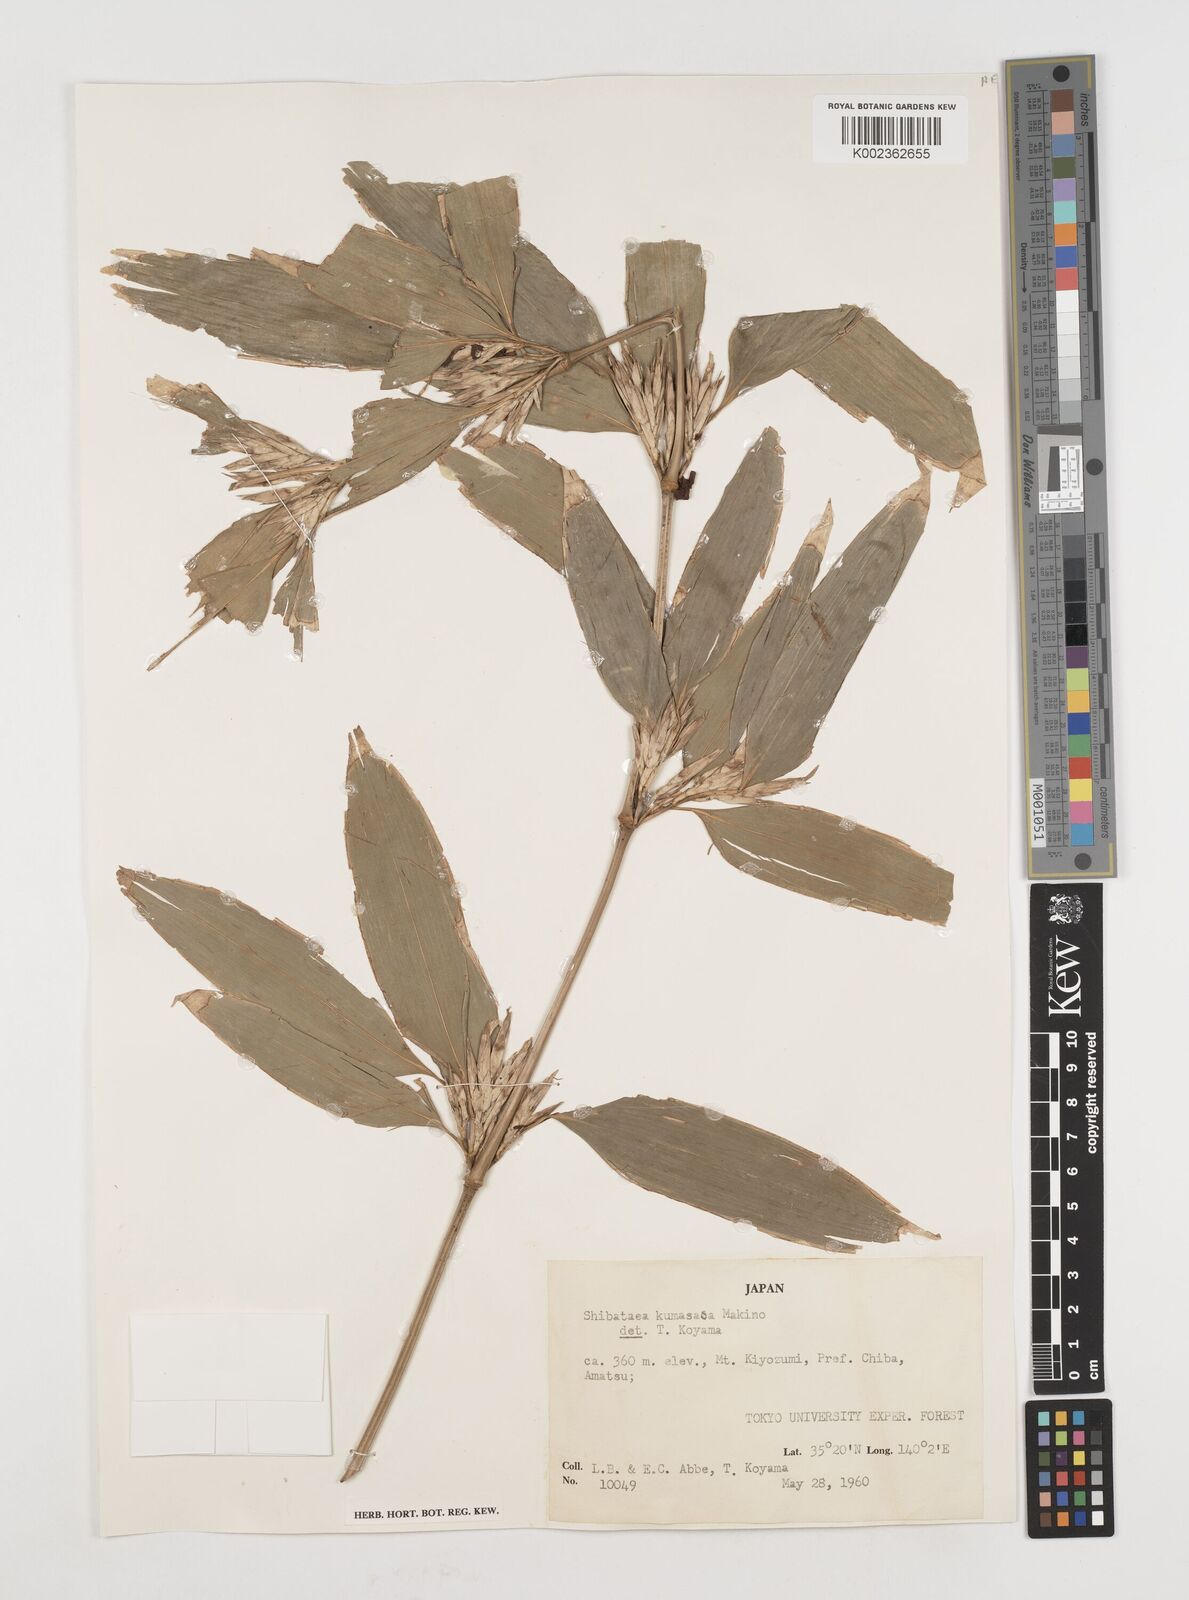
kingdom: Plantae
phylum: Tracheophyta
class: Liliopsida
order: Poales
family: Poaceae
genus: Shibataea
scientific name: Shibataea kumasasa
